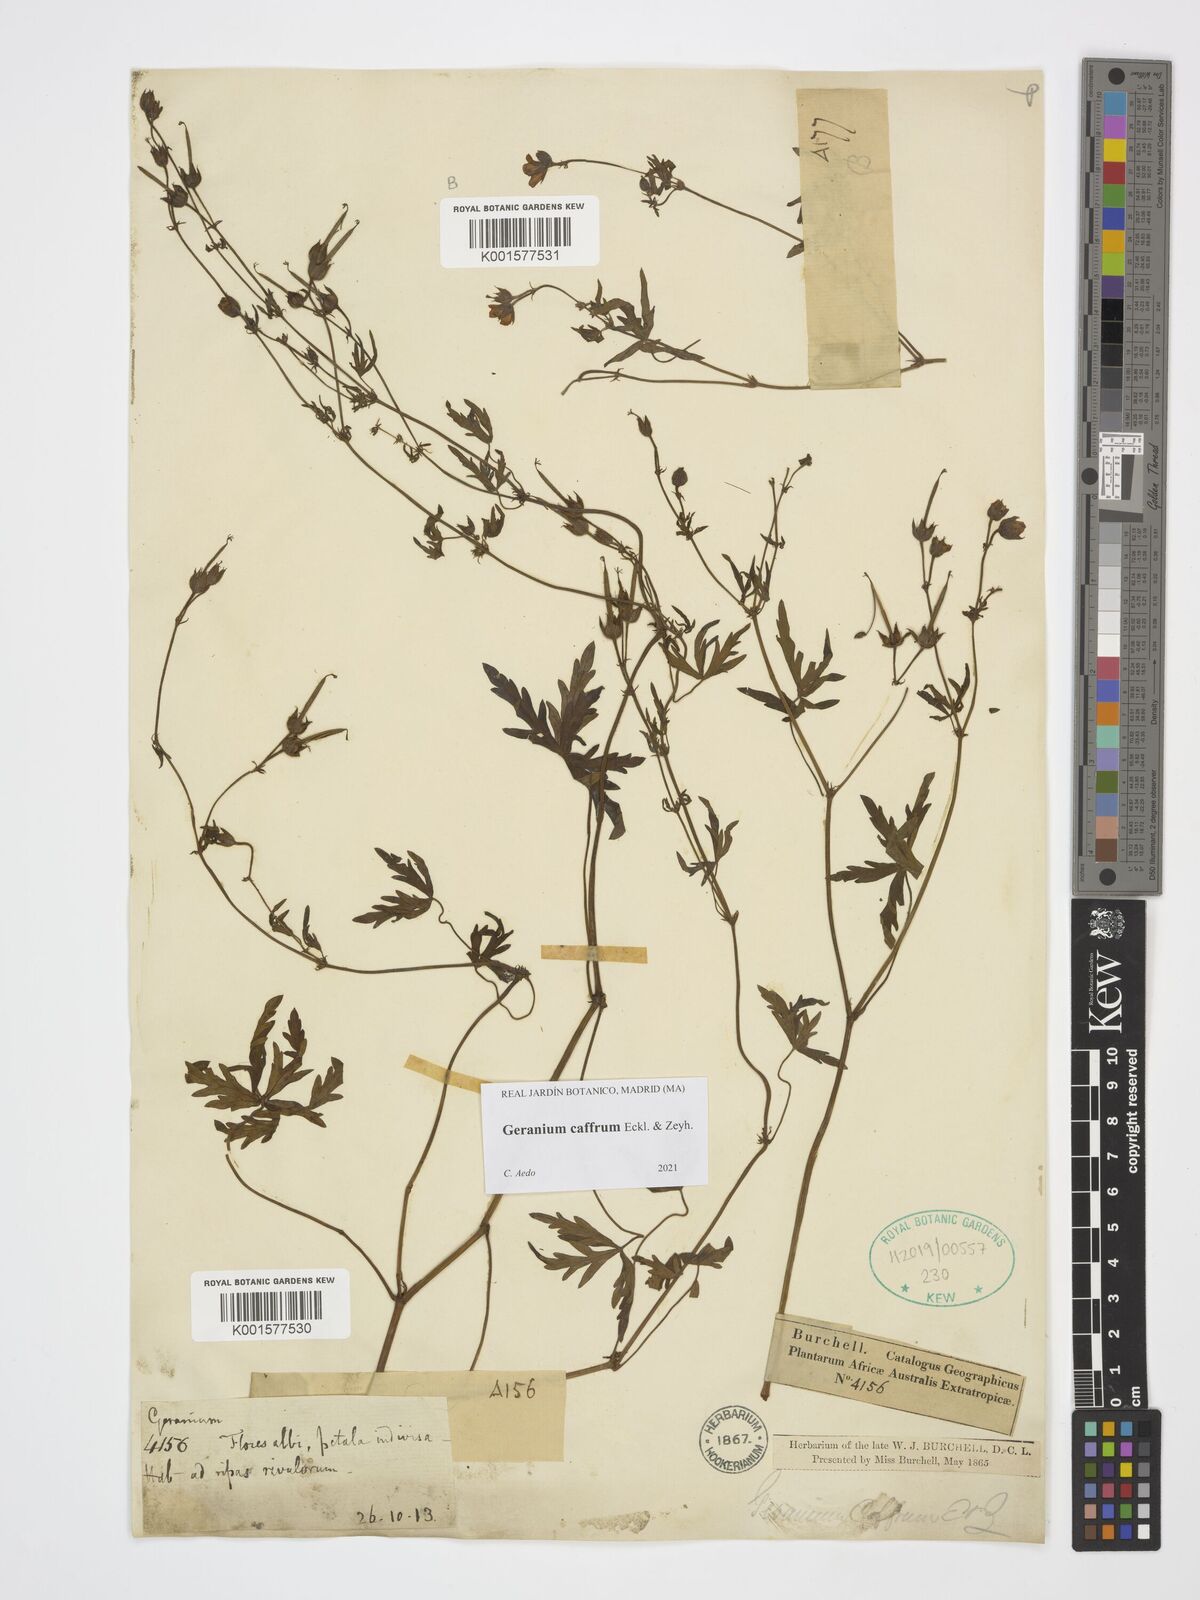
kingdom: Plantae
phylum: Tracheophyta
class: Magnoliopsida
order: Geraniales
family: Geraniaceae
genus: Geranium
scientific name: Geranium caffrum
